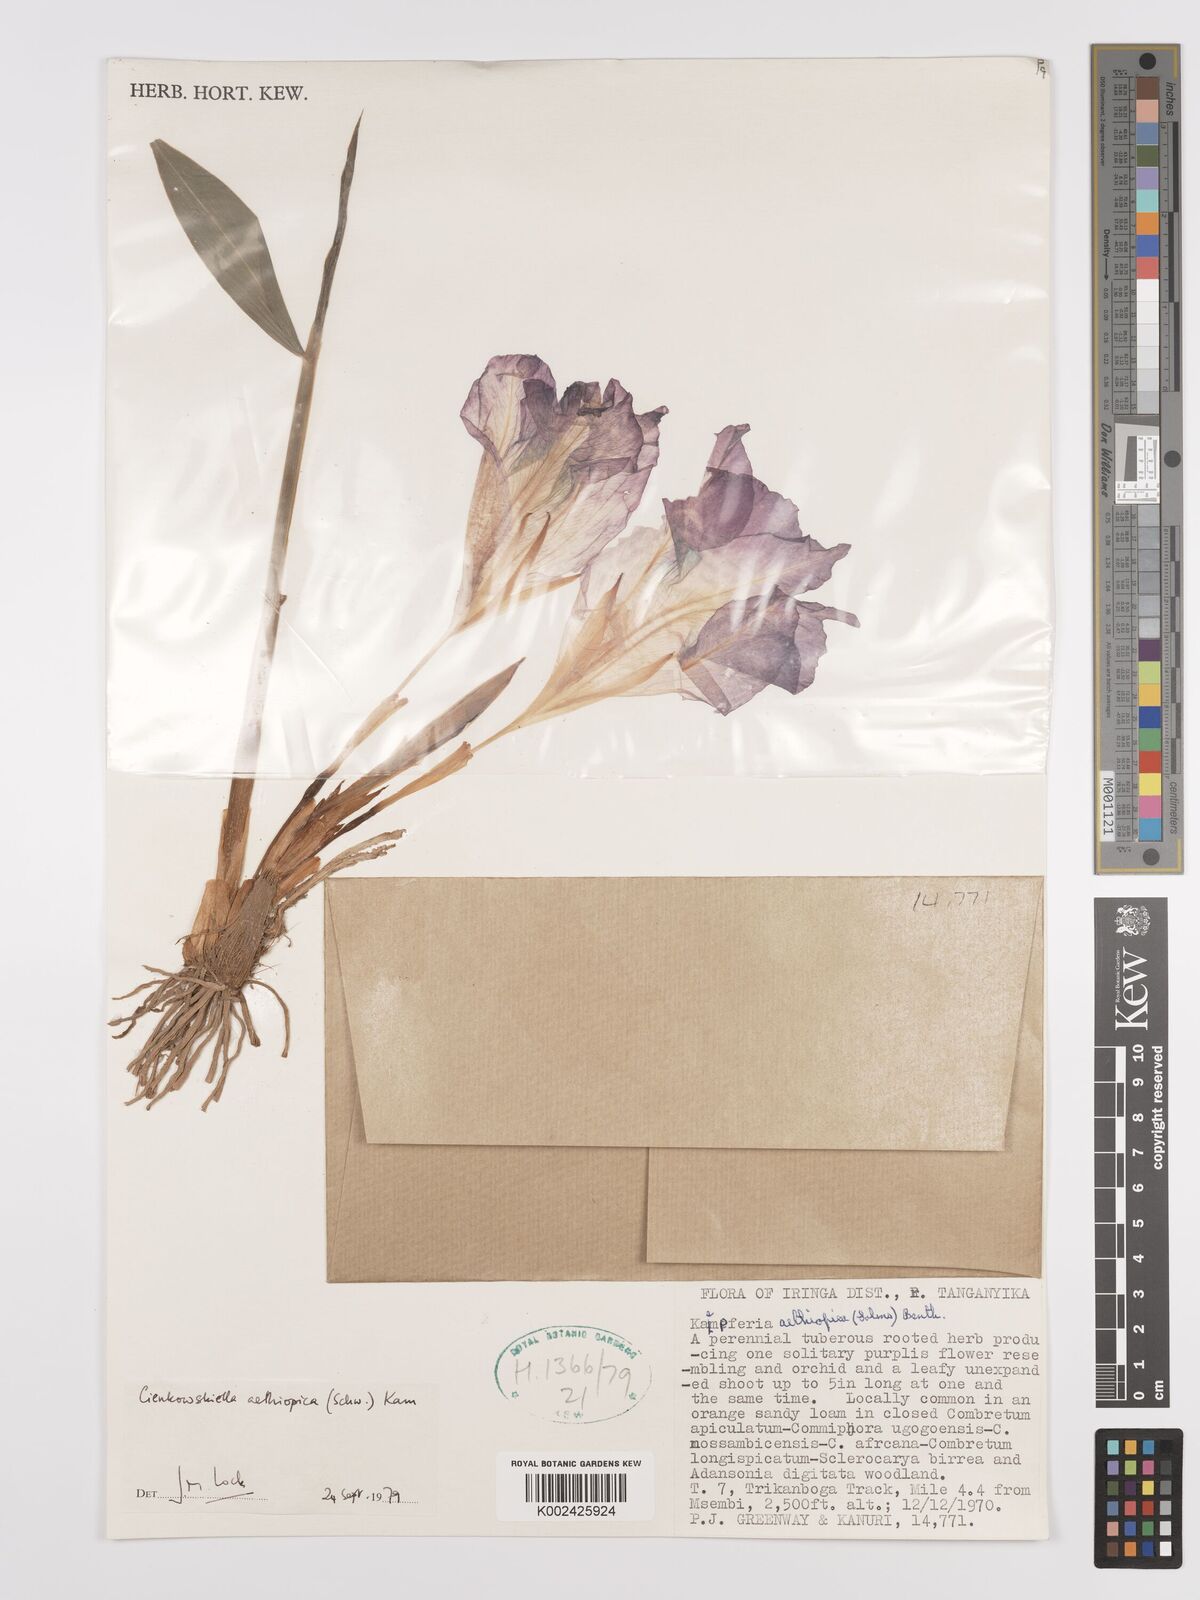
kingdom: Plantae
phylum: Tracheophyta
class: Liliopsida
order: Zingiberales
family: Zingiberaceae
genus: Siphonochilus
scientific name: Siphonochilus aethiopicus
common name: African-ginger
